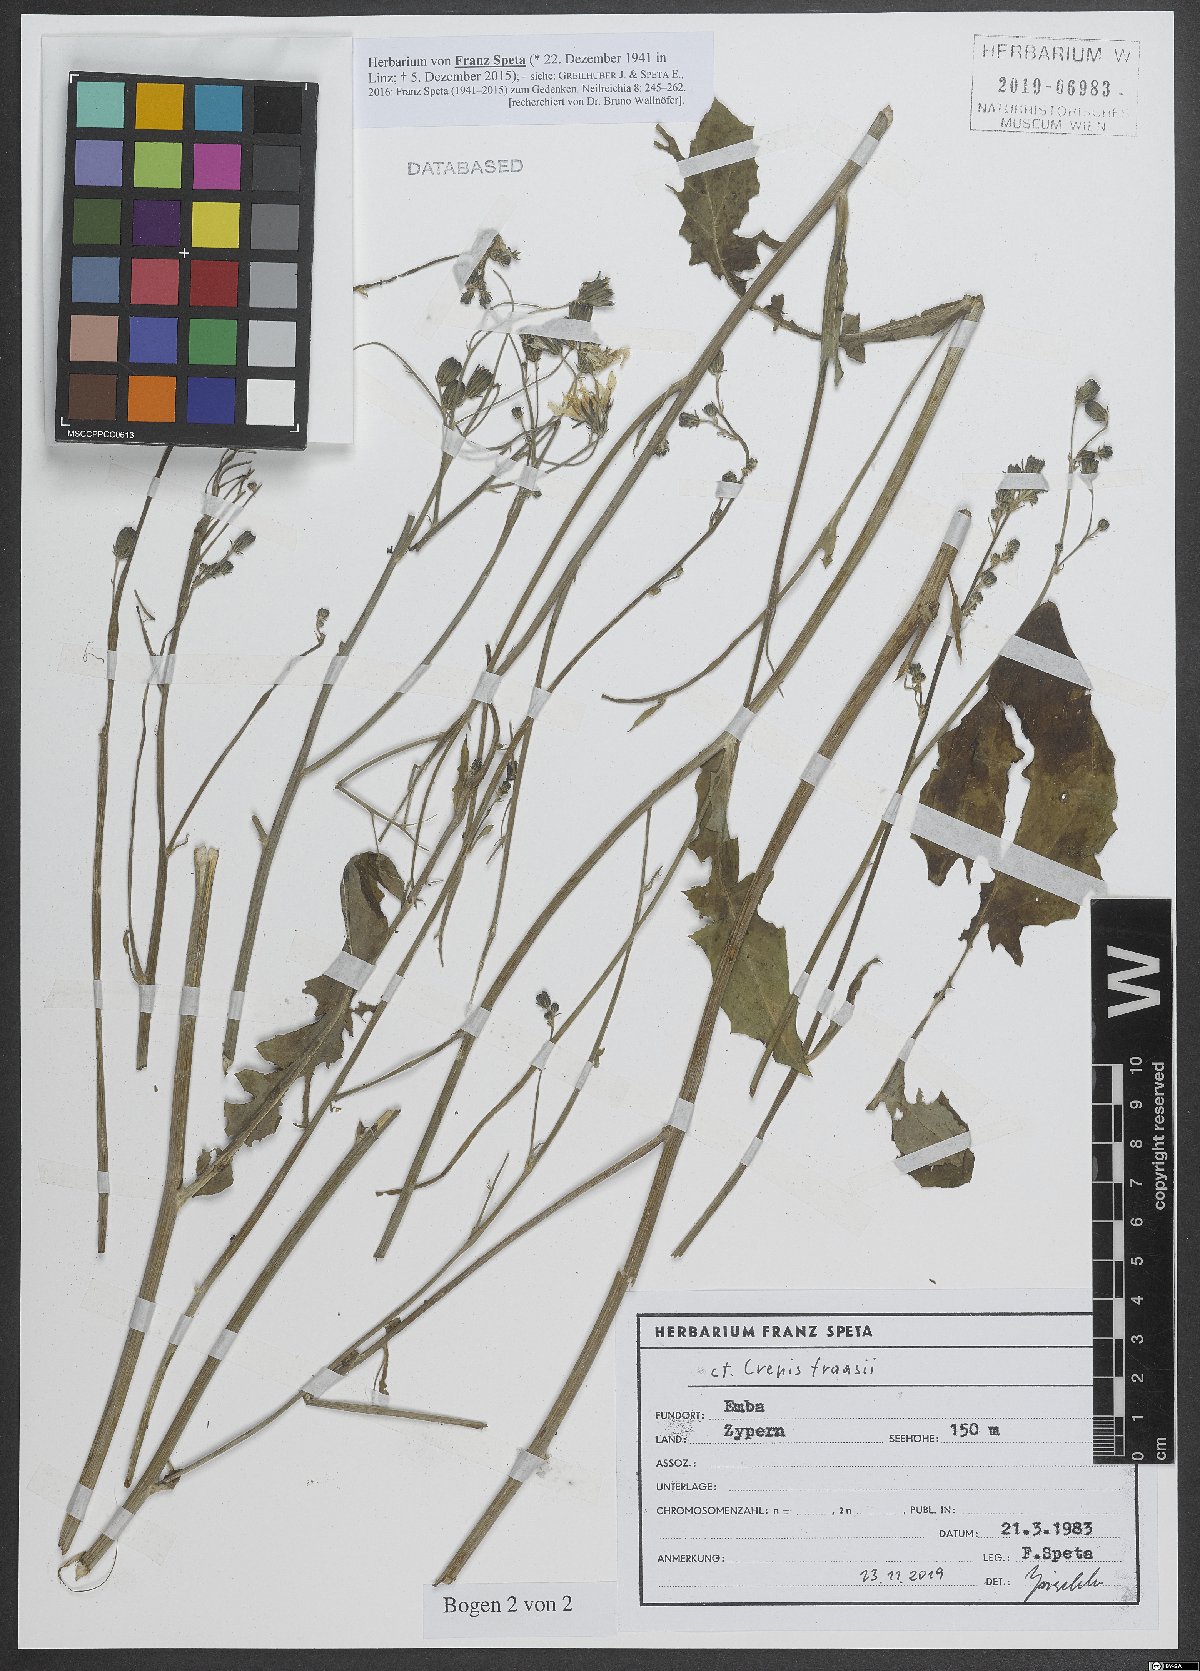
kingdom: Plantae
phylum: Tracheophyta
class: Magnoliopsida
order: Asterales
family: Asteraceae
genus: Crepis
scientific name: Crepis fraasii
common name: Hawk's-beard
